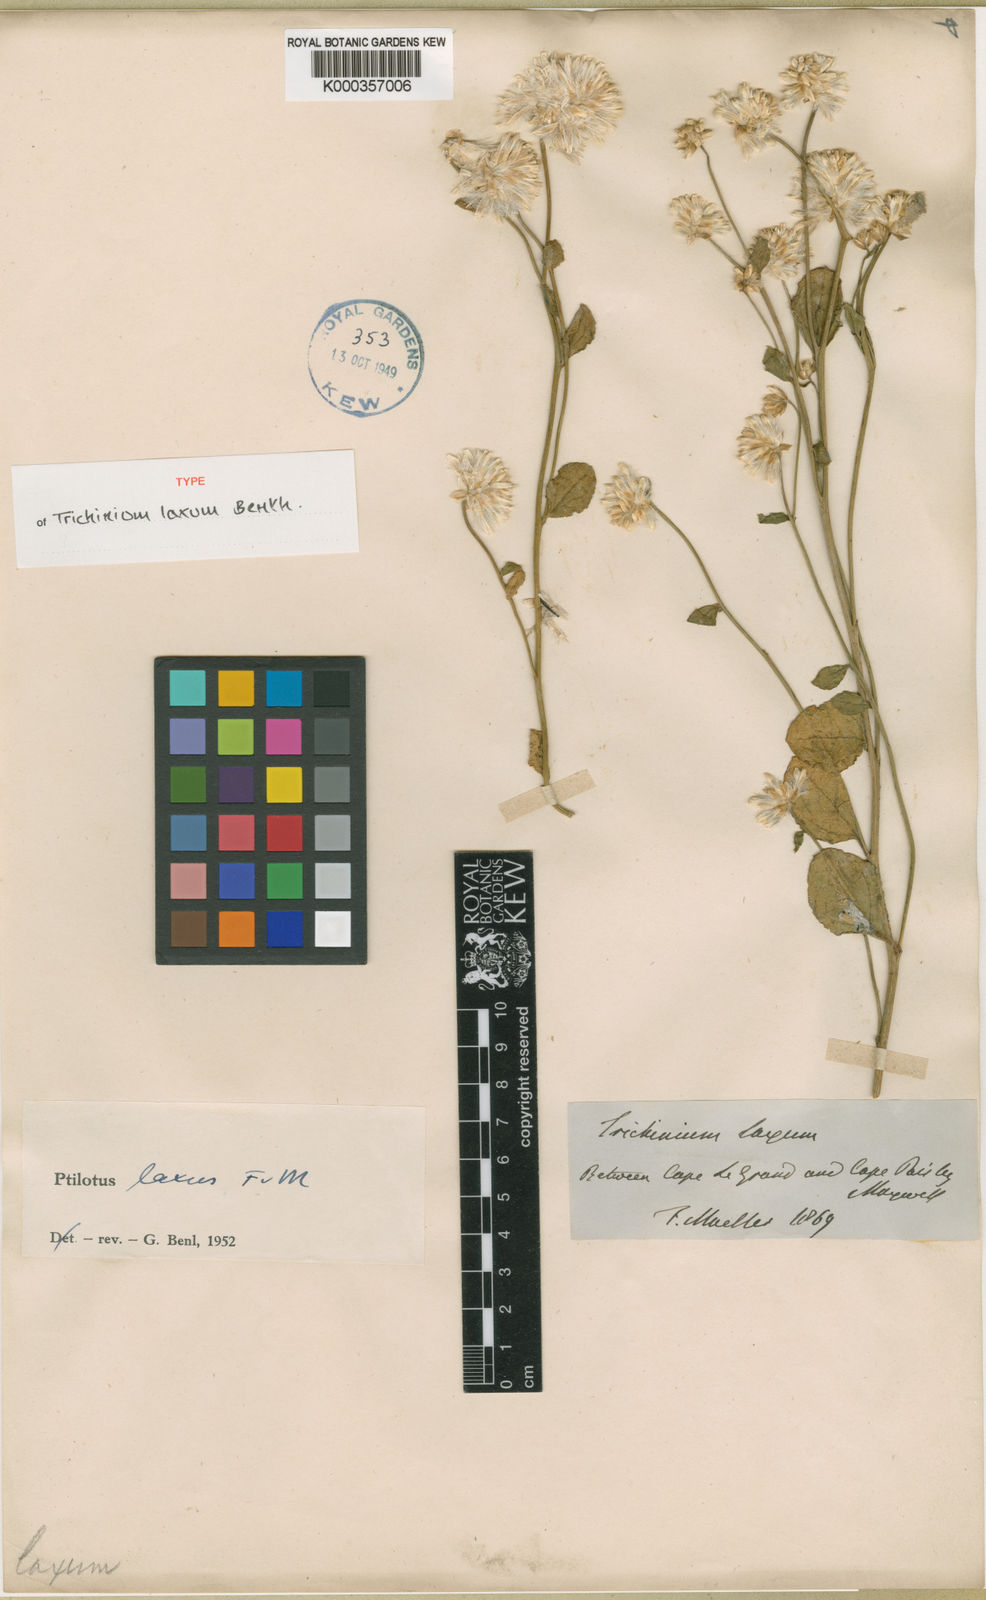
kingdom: Plantae
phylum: Tracheophyta
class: Magnoliopsida
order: Caryophyllales
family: Amaranthaceae
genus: Ptilotus
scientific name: Ptilotus stirlingii
